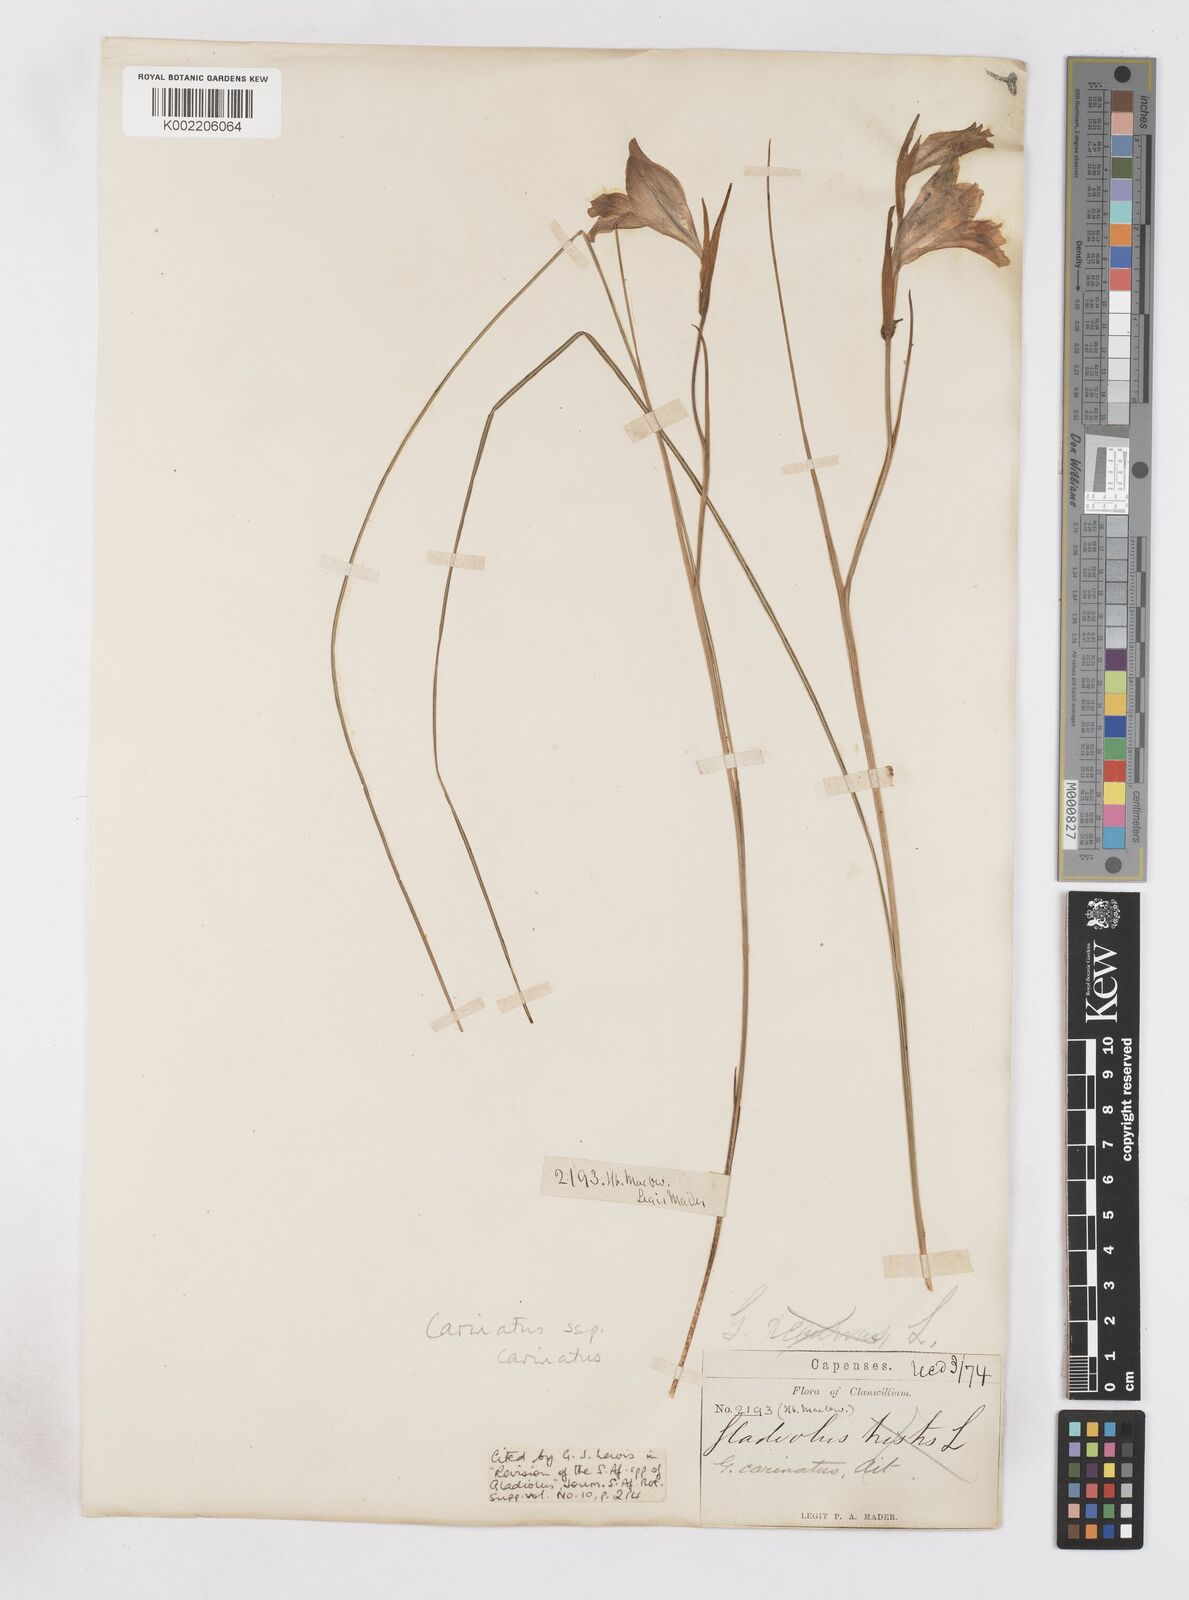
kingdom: Plantae
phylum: Tracheophyta
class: Liliopsida
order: Asparagales
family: Iridaceae
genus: Gladiolus
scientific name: Gladiolus carinatus
